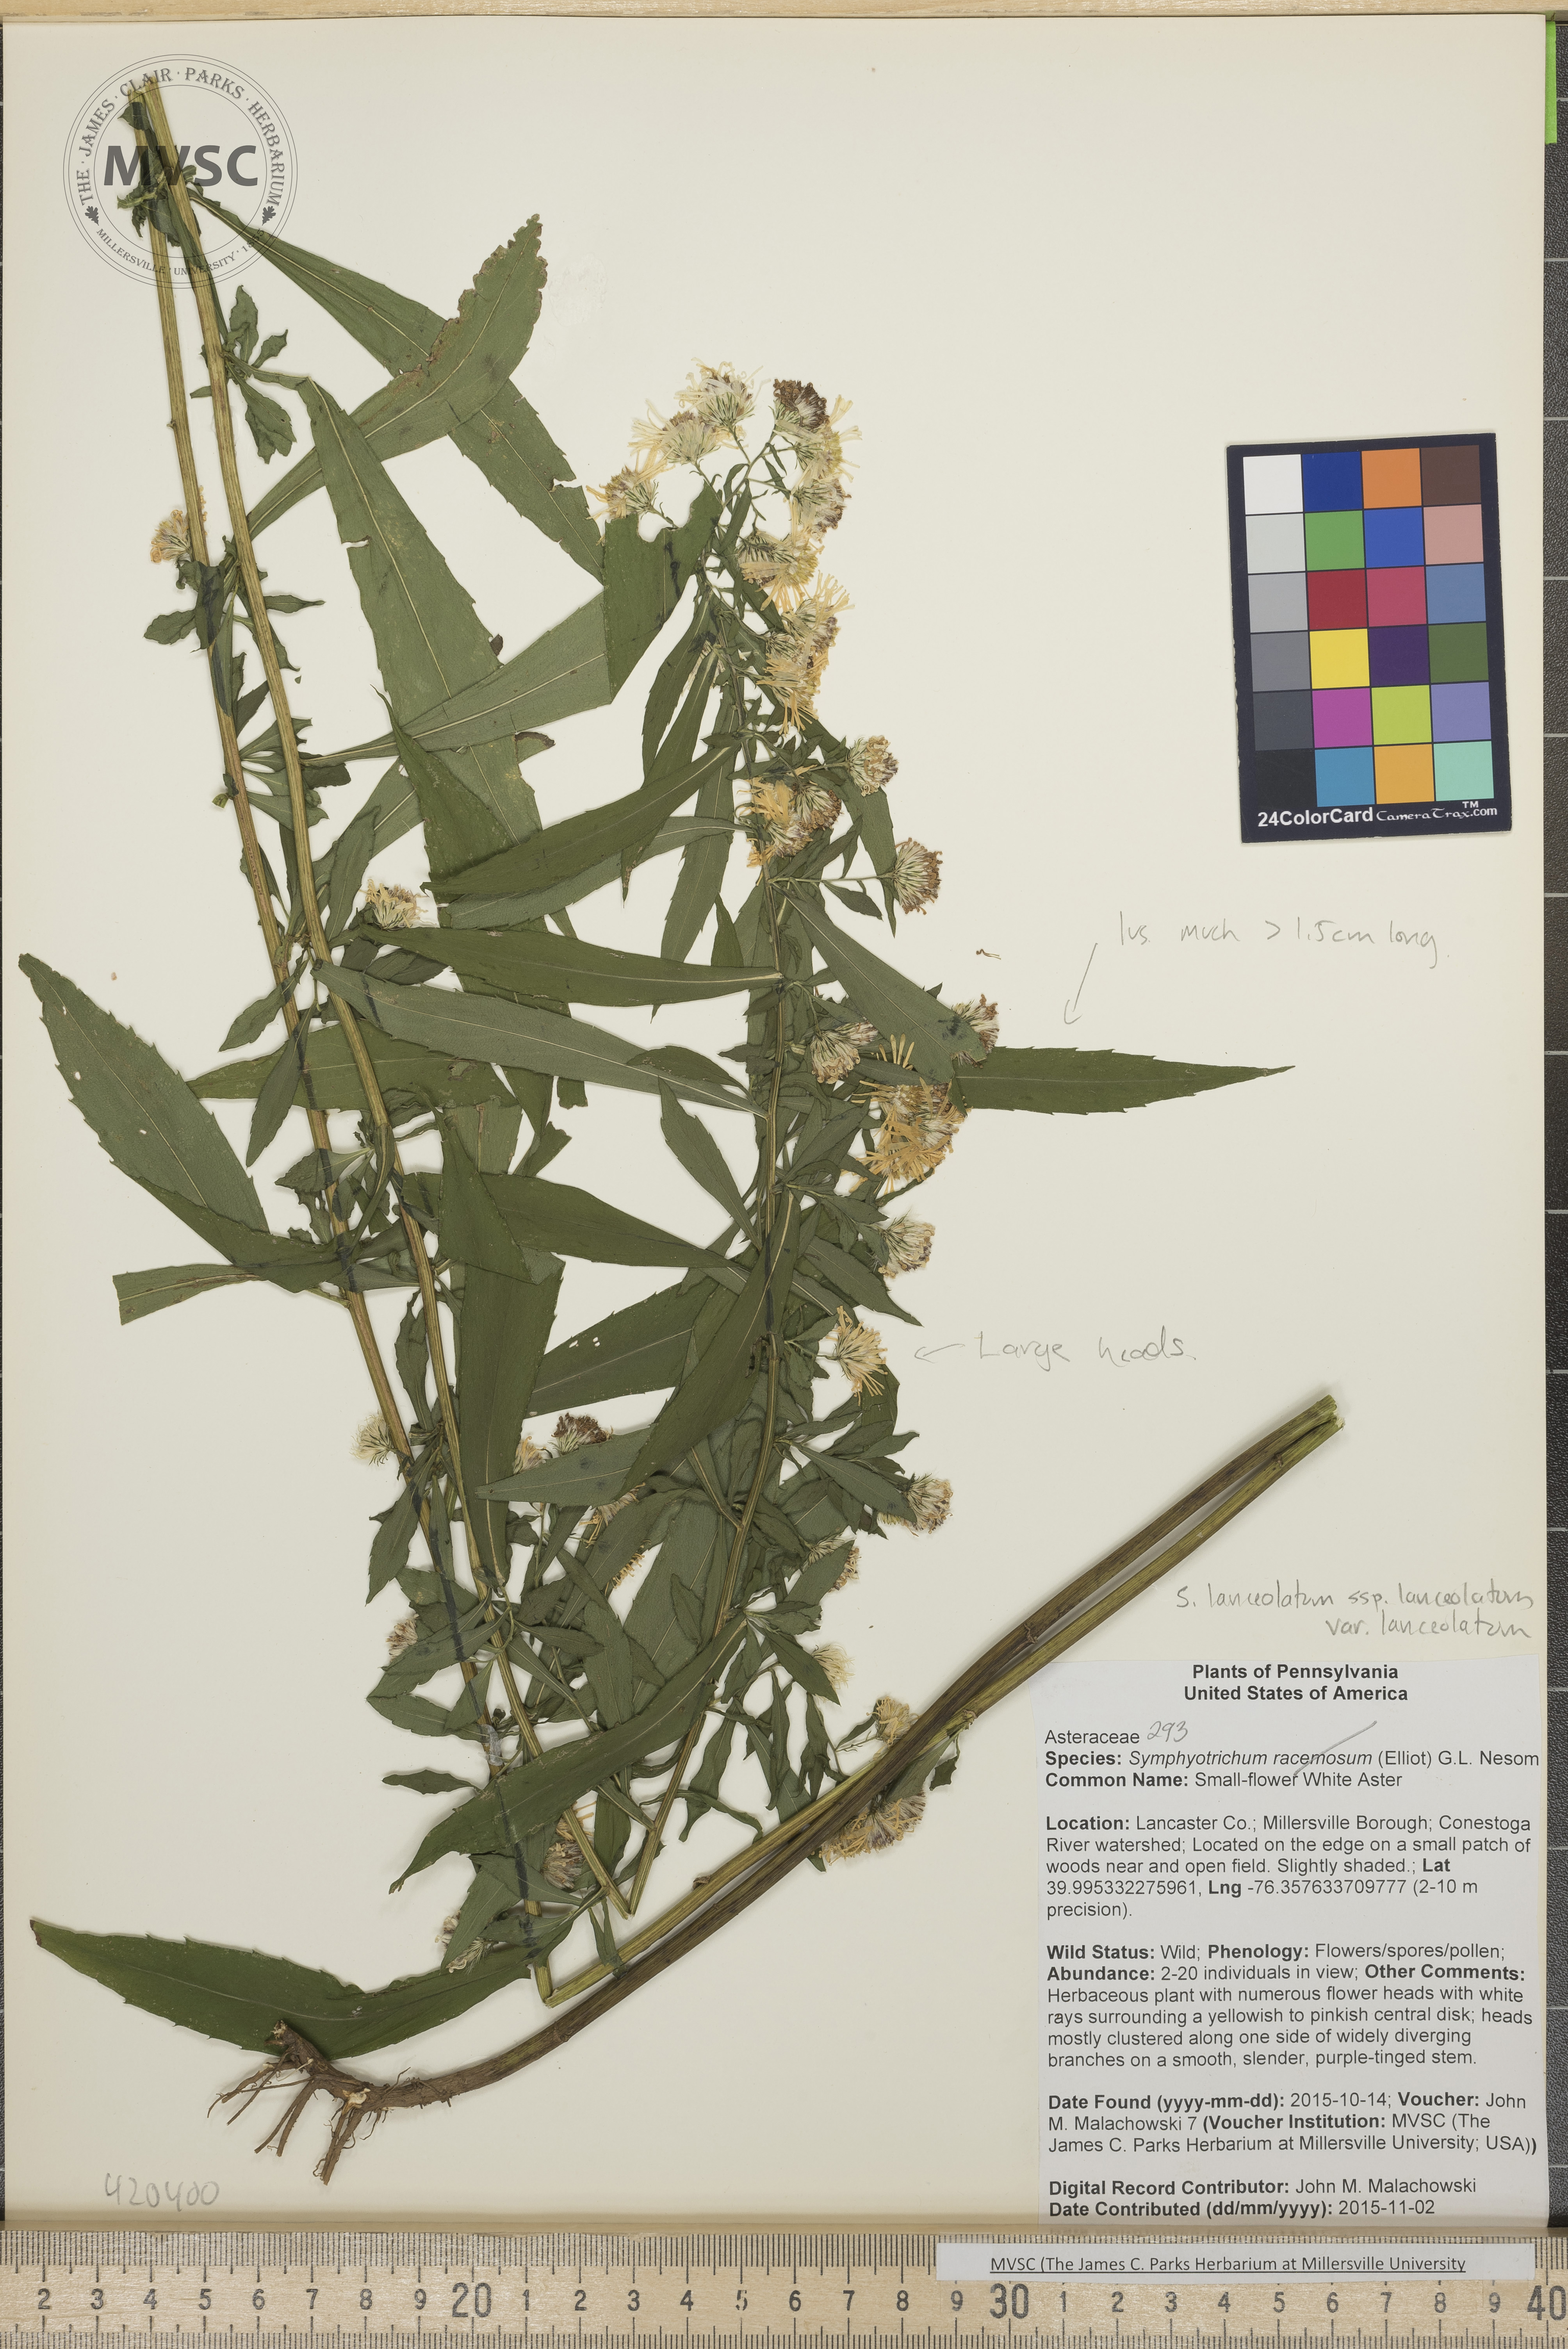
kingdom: Plantae
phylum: Tracheophyta
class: Magnoliopsida
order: Asterales
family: Asteraceae
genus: Symphyotrichum
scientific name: Symphyotrichum lanceolatum
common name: Aster
